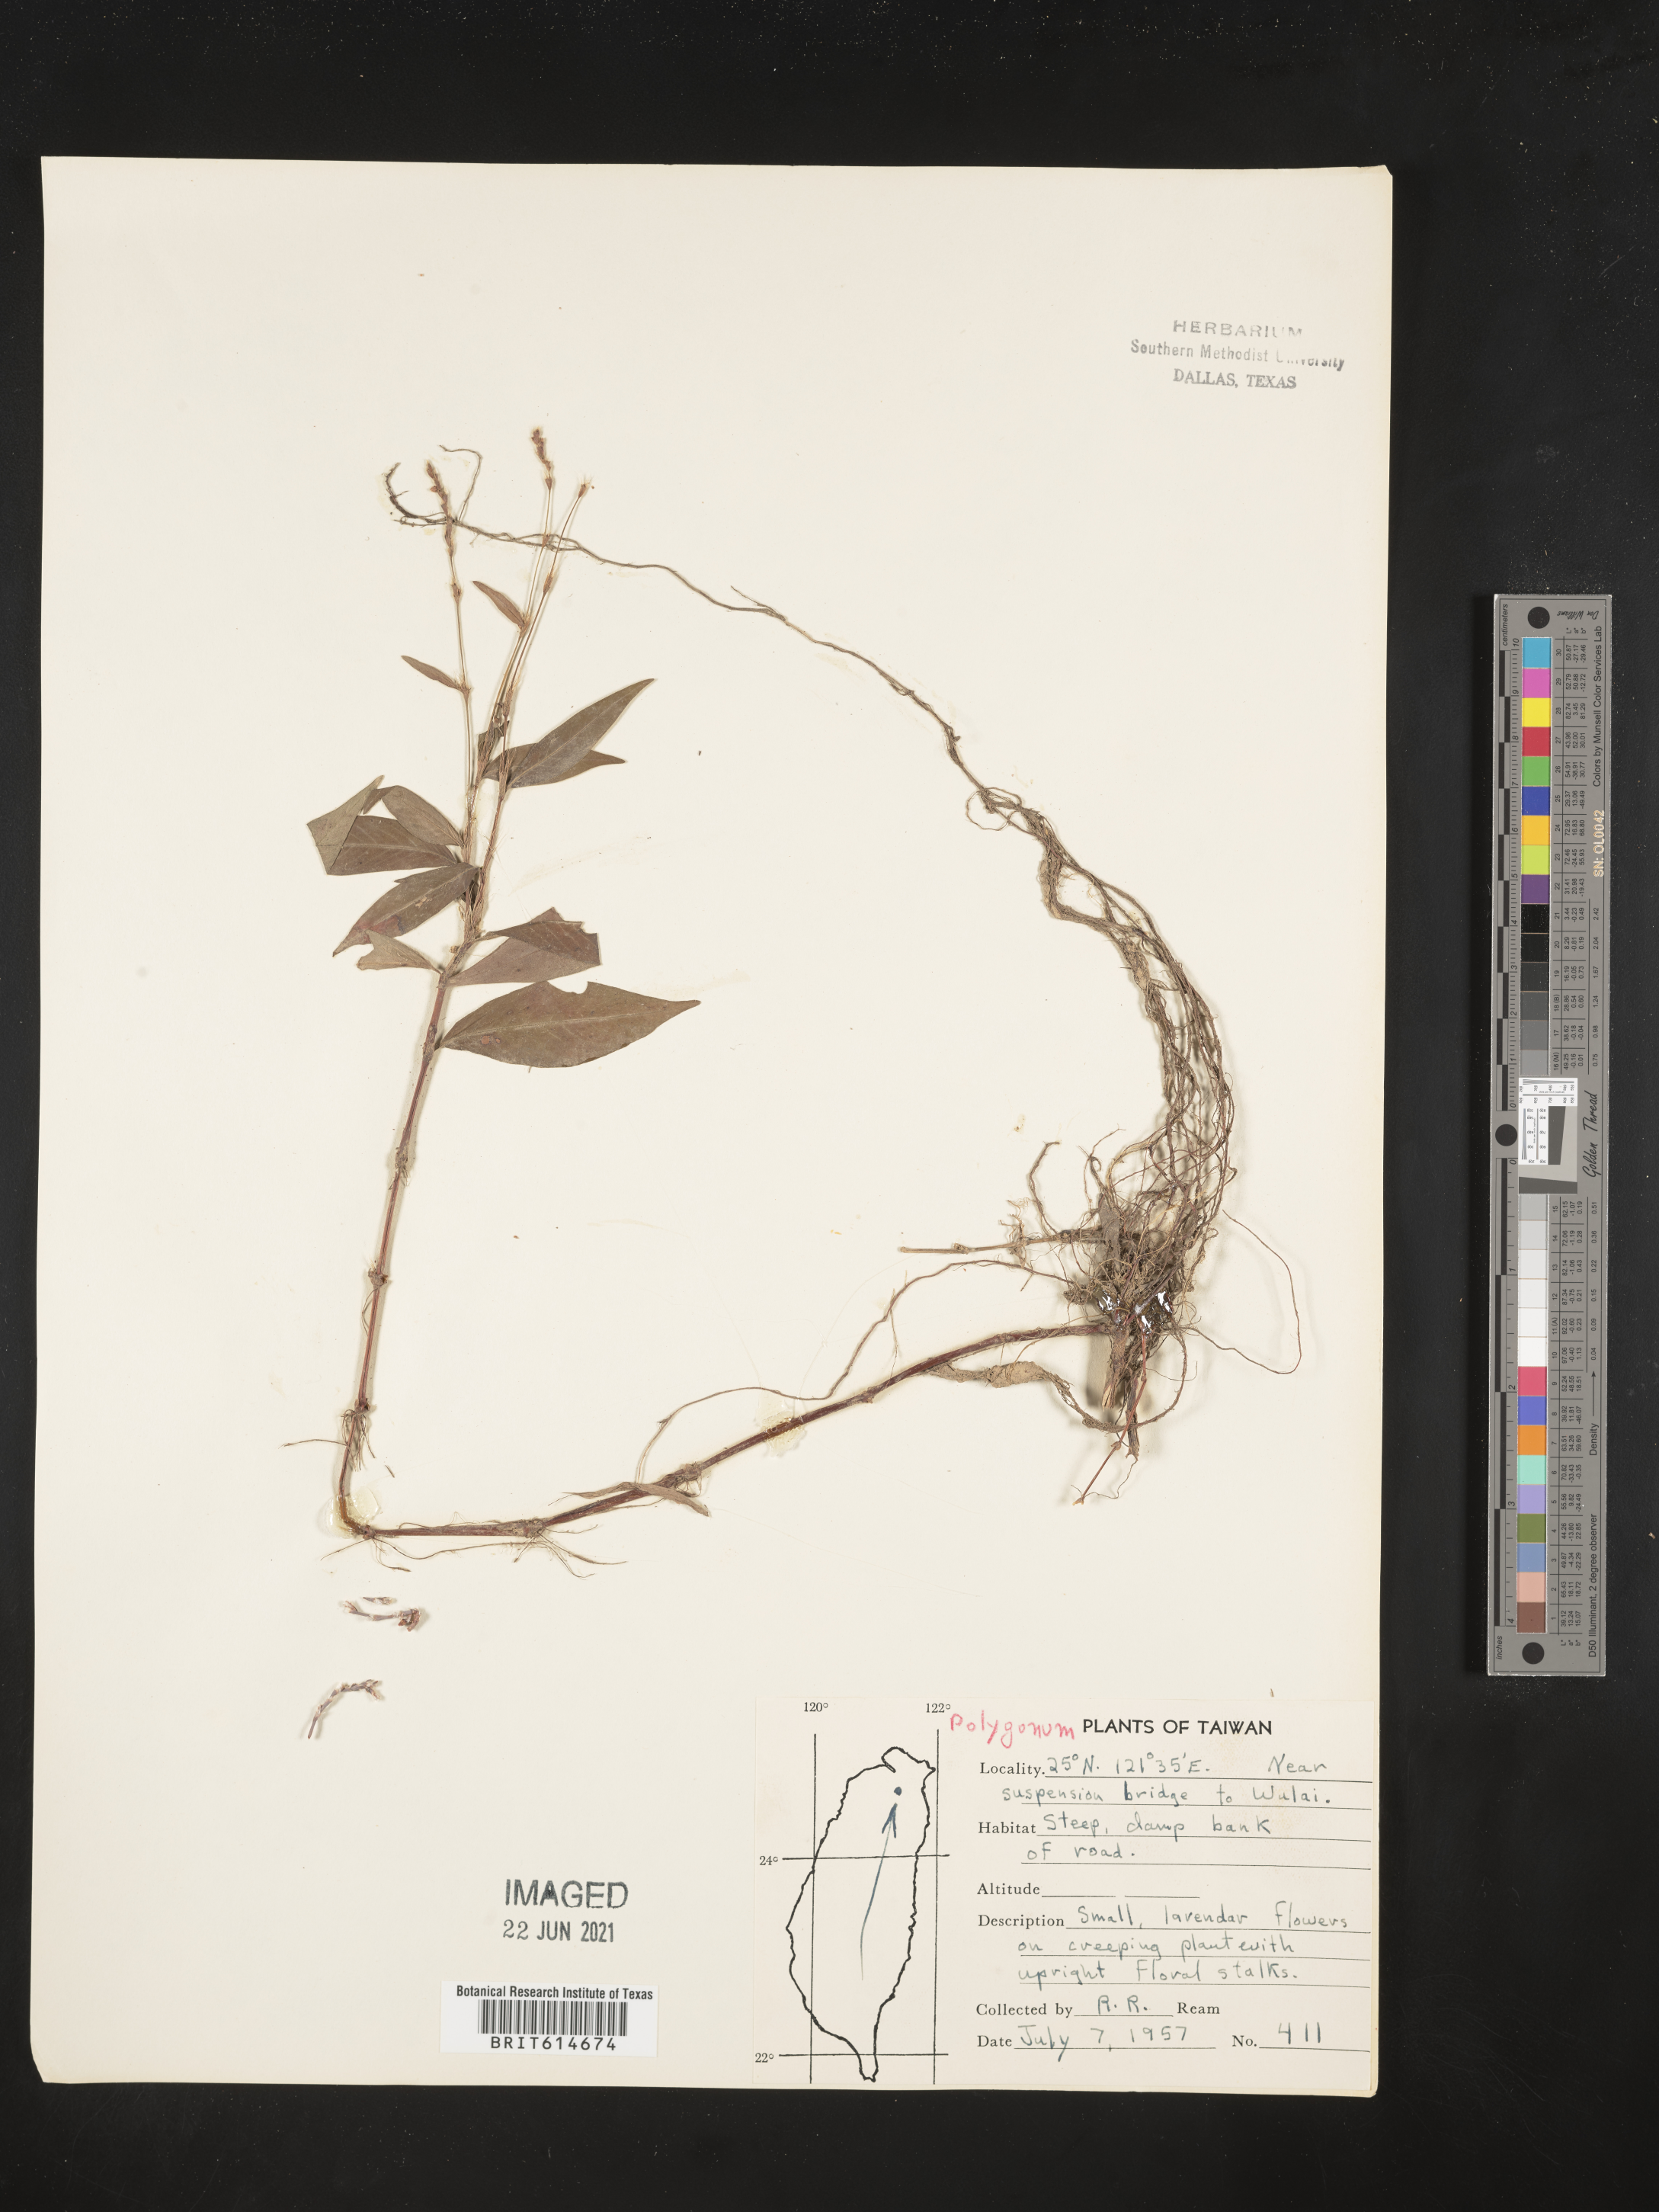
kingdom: Plantae
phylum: Tracheophyta
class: Magnoliopsida
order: Caryophyllales
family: Polygonaceae
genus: Polygonum
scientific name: Polygonum
